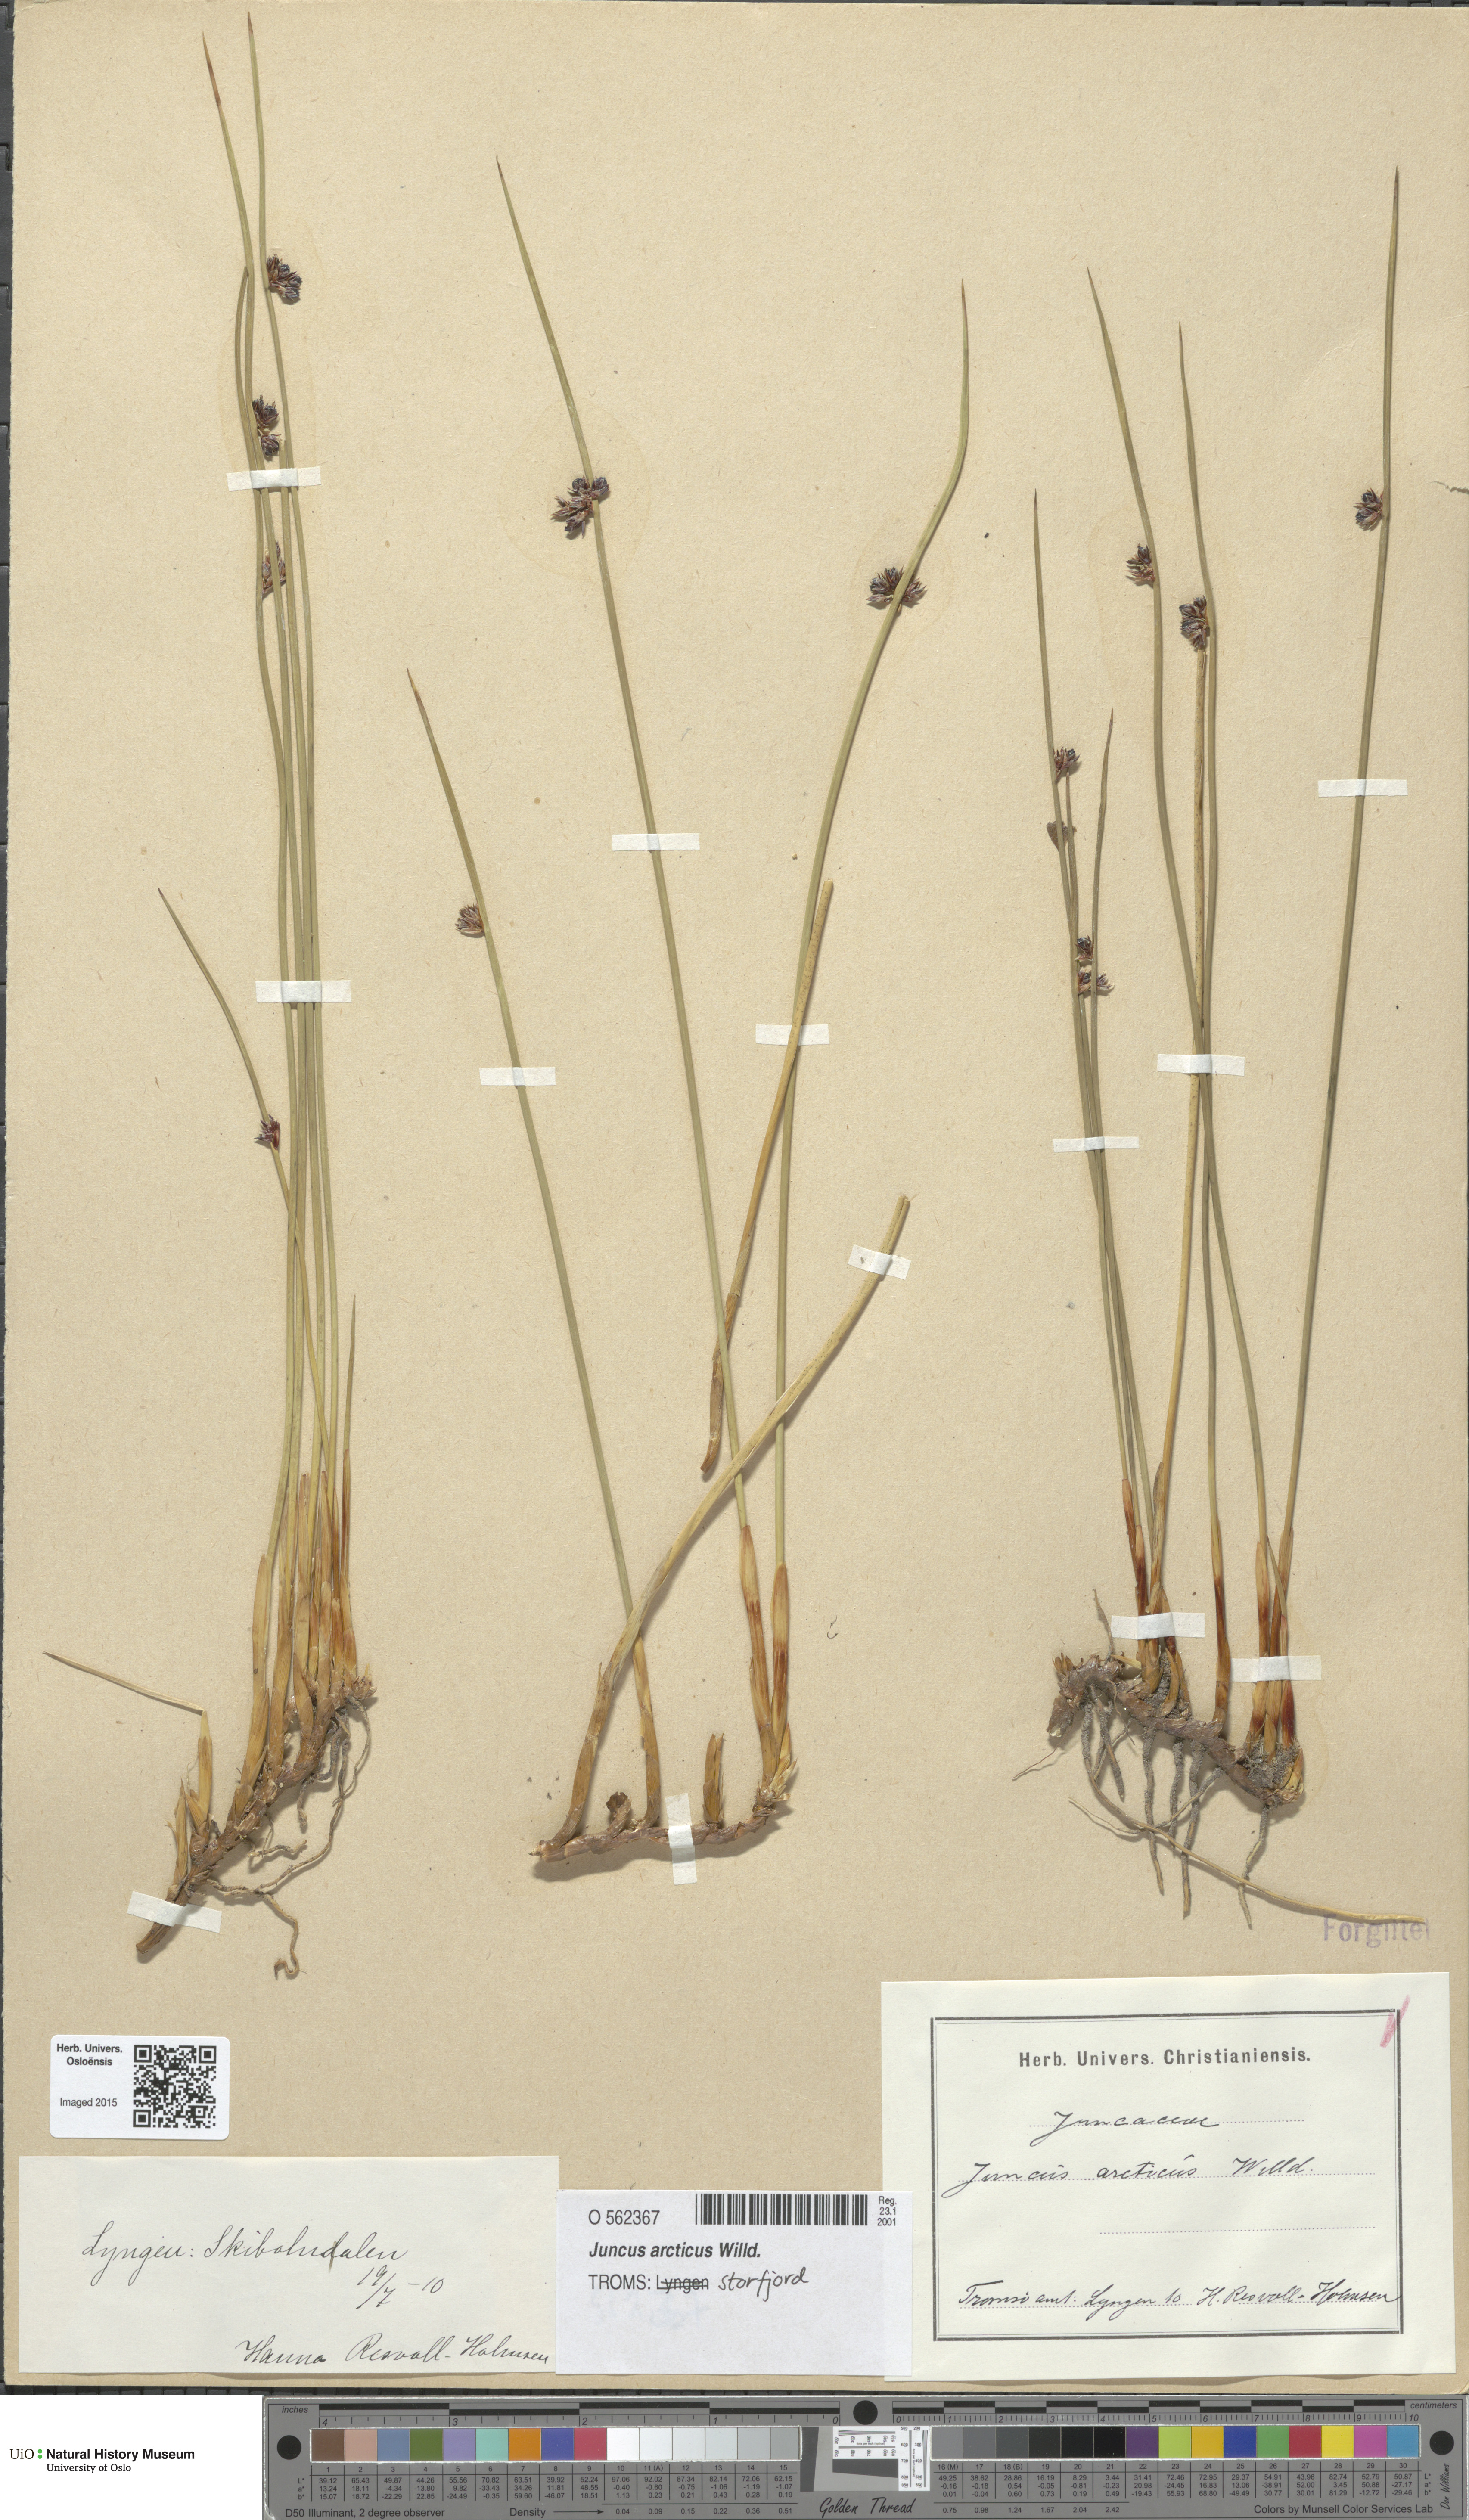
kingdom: Plantae
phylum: Tracheophyta
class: Liliopsida
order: Poales
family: Juncaceae
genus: Juncus
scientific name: Juncus arcticus
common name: Arctic rush
